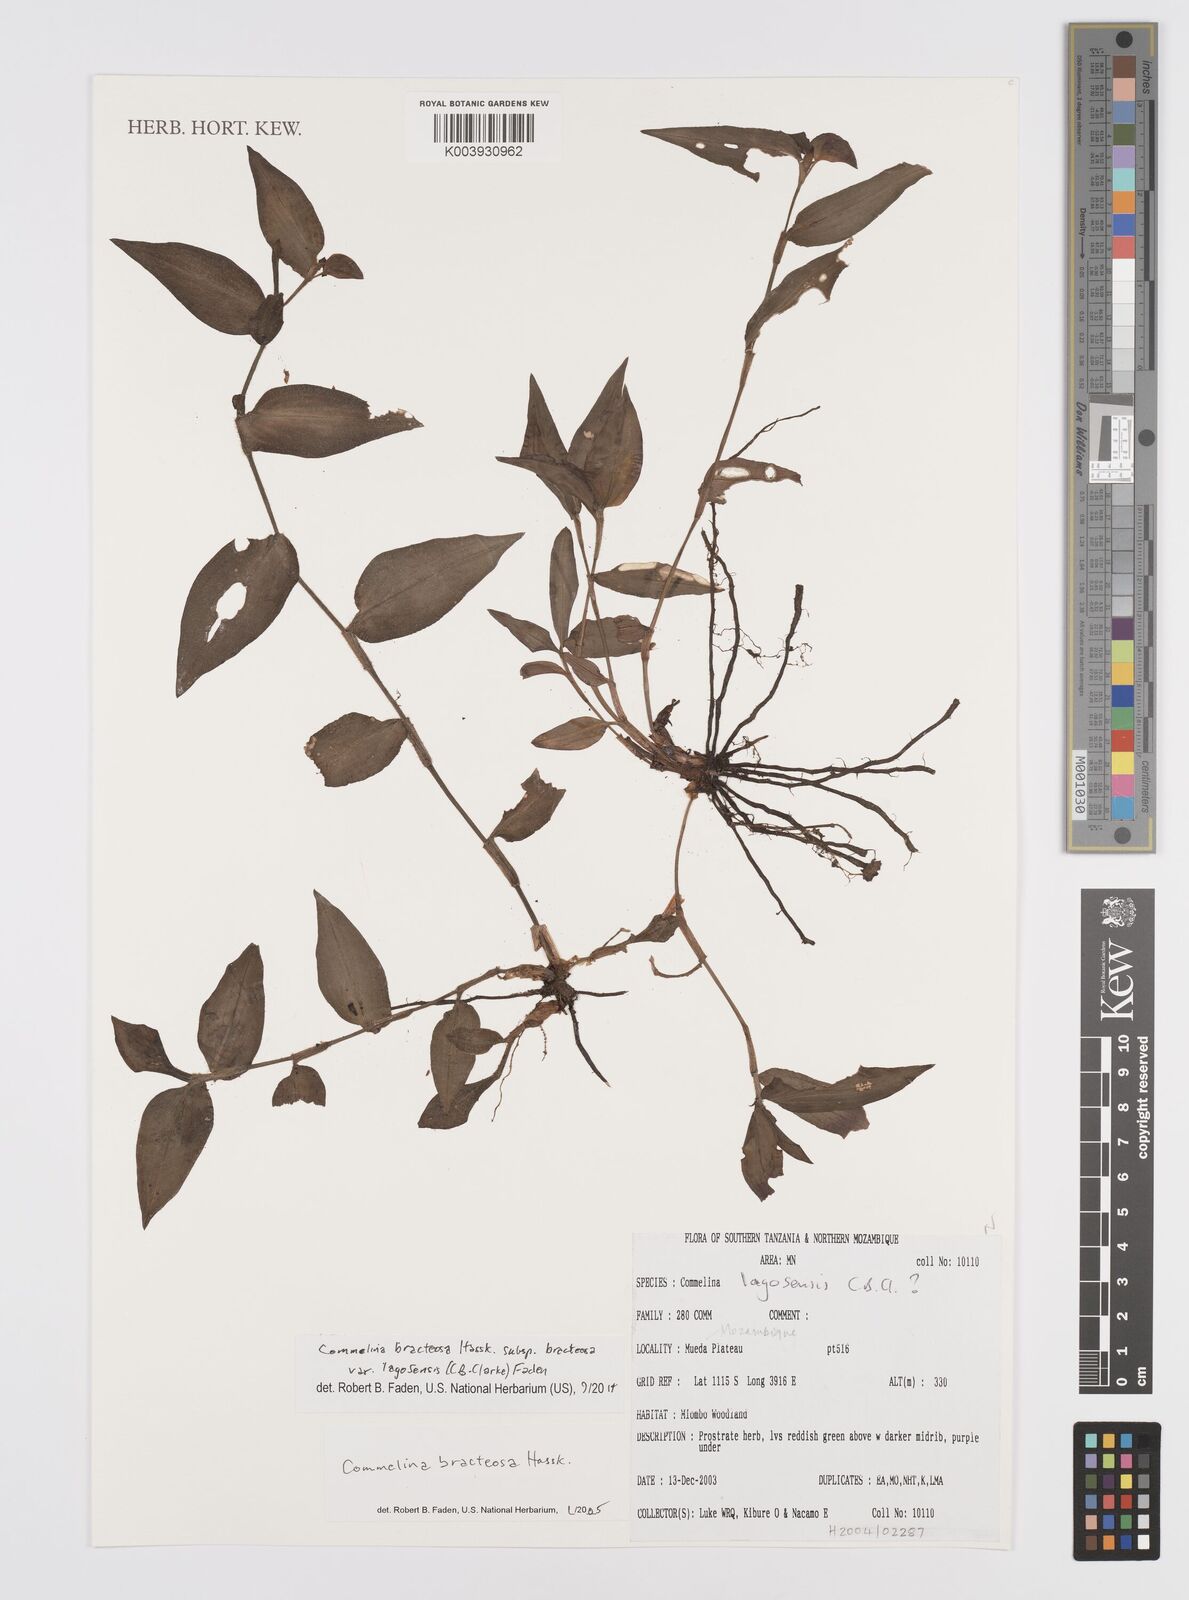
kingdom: Plantae
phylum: Tracheophyta
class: Liliopsida
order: Commelinales
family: Commelinaceae
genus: Commelina
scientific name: Commelina bracteosa
